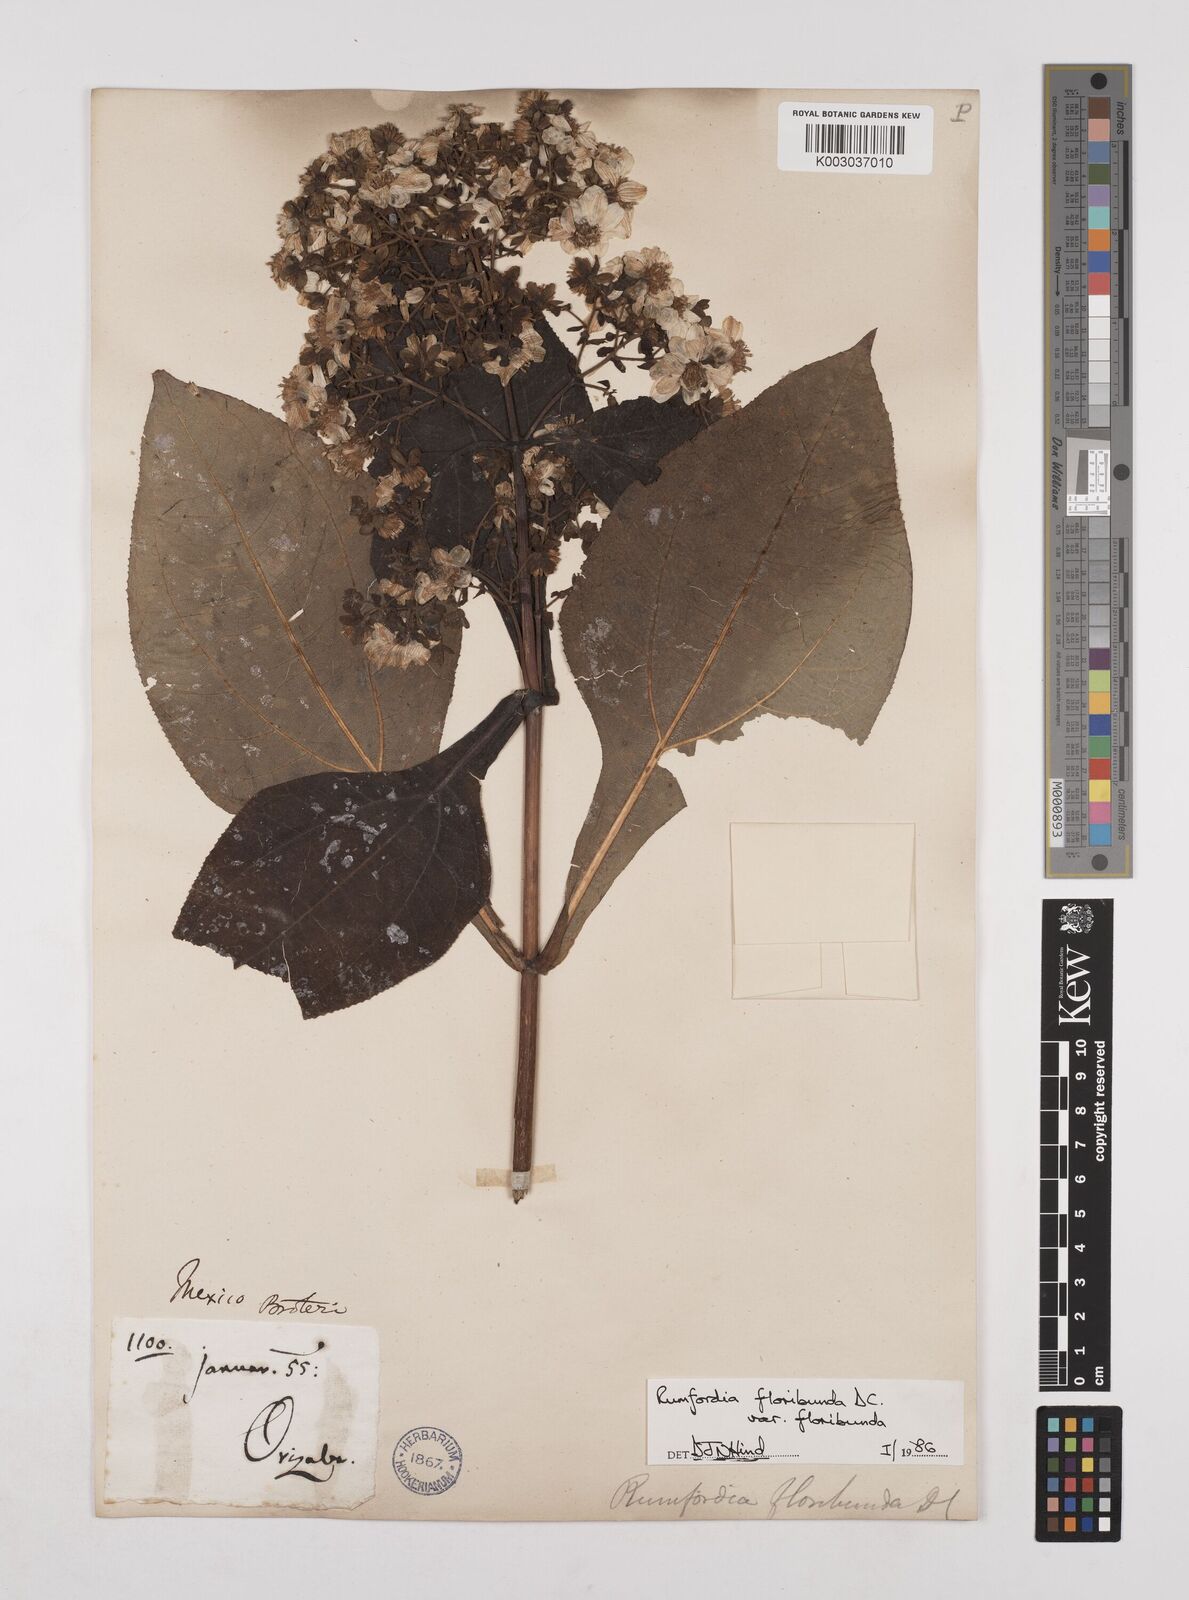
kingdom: Plantae
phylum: Tracheophyta
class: Magnoliopsida
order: Asterales
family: Asteraceae
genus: Rumfordia
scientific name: Rumfordia floribunda
